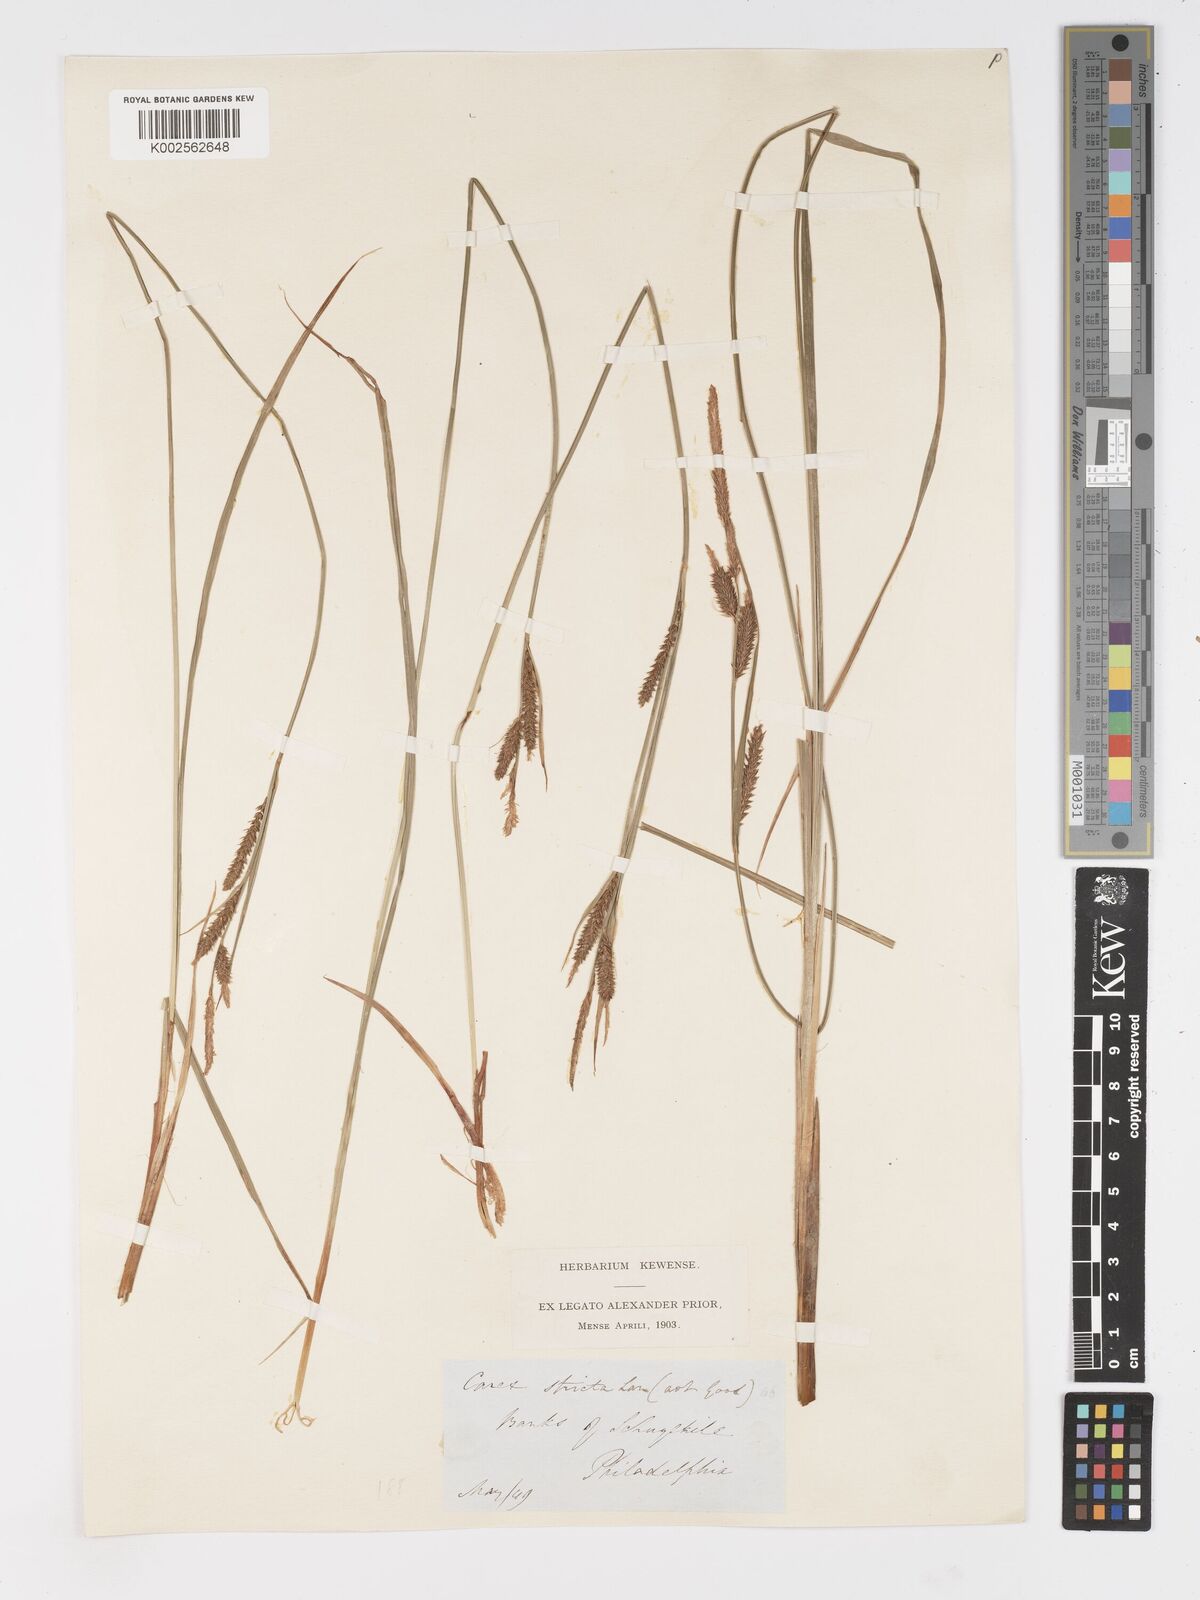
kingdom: Plantae
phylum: Tracheophyta
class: Liliopsida
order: Poales
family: Cyperaceae
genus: Carex
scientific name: Carex stricta
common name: Hummock sedge
